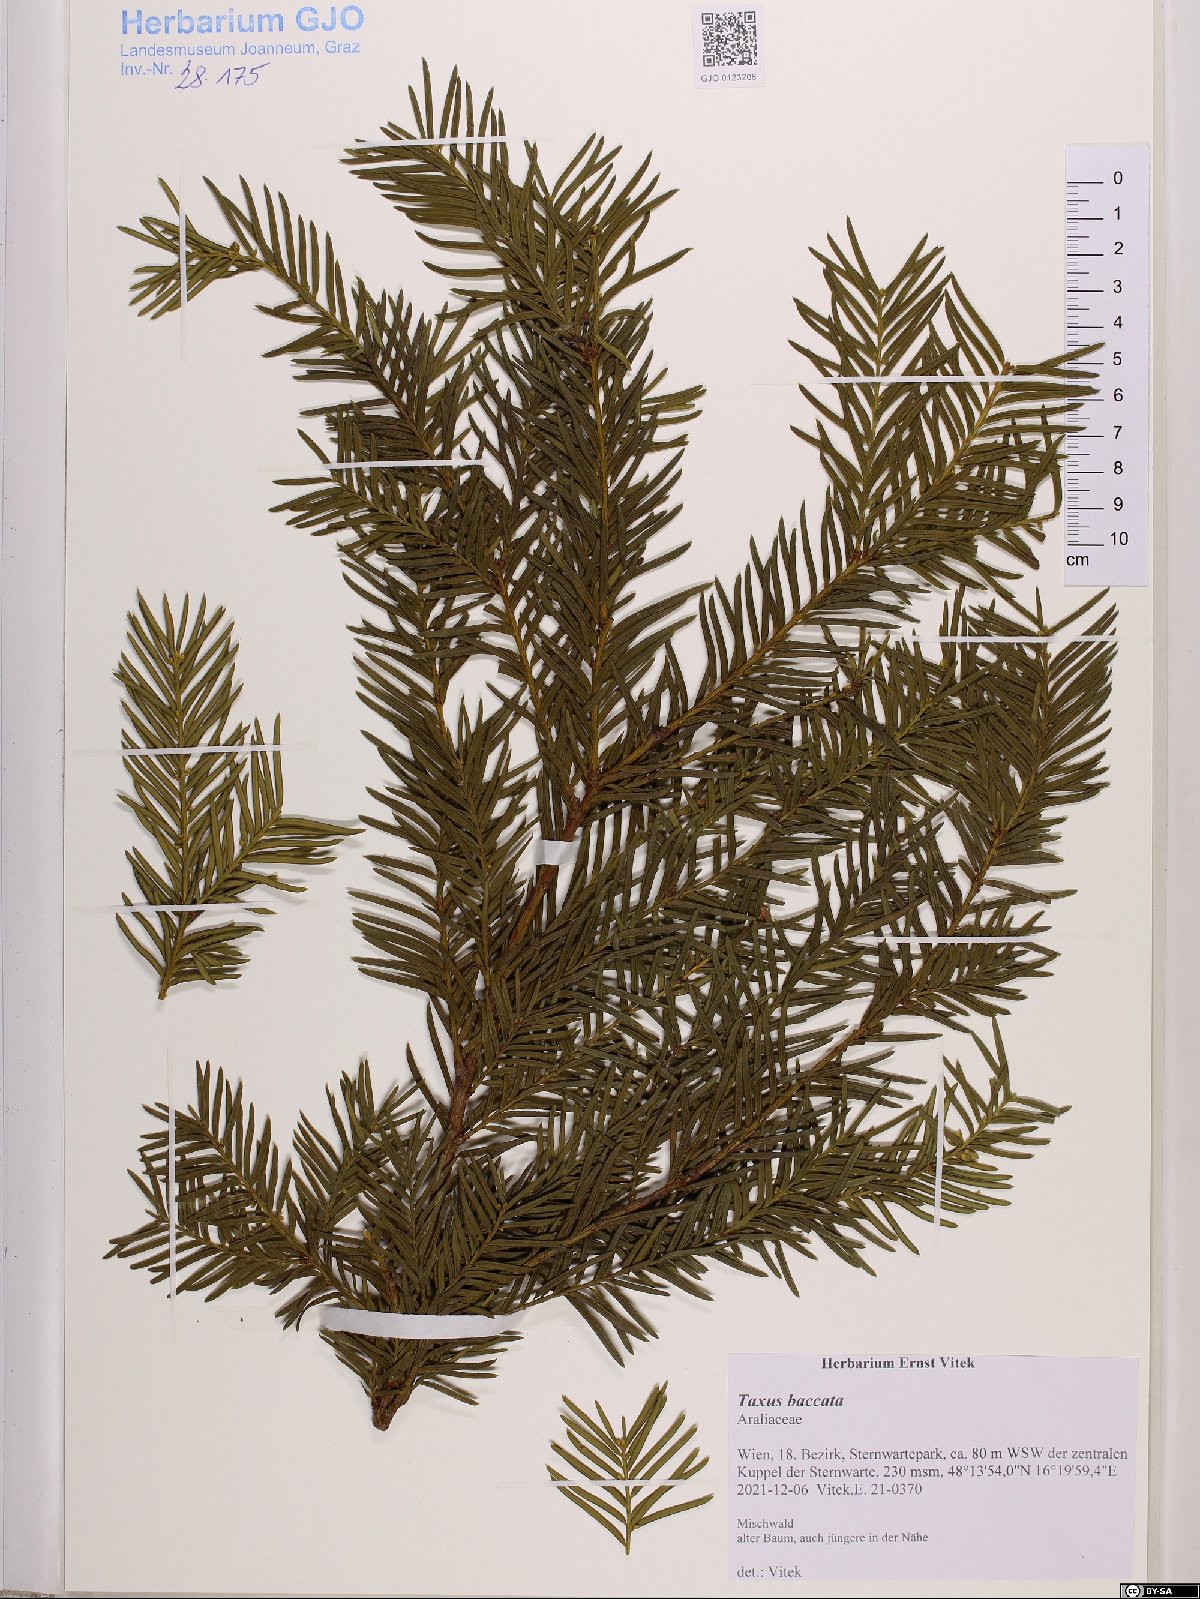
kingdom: Plantae
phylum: Tracheophyta
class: Pinopsida
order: Pinales
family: Taxaceae
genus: Taxus
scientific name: Taxus baccata
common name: Yew
